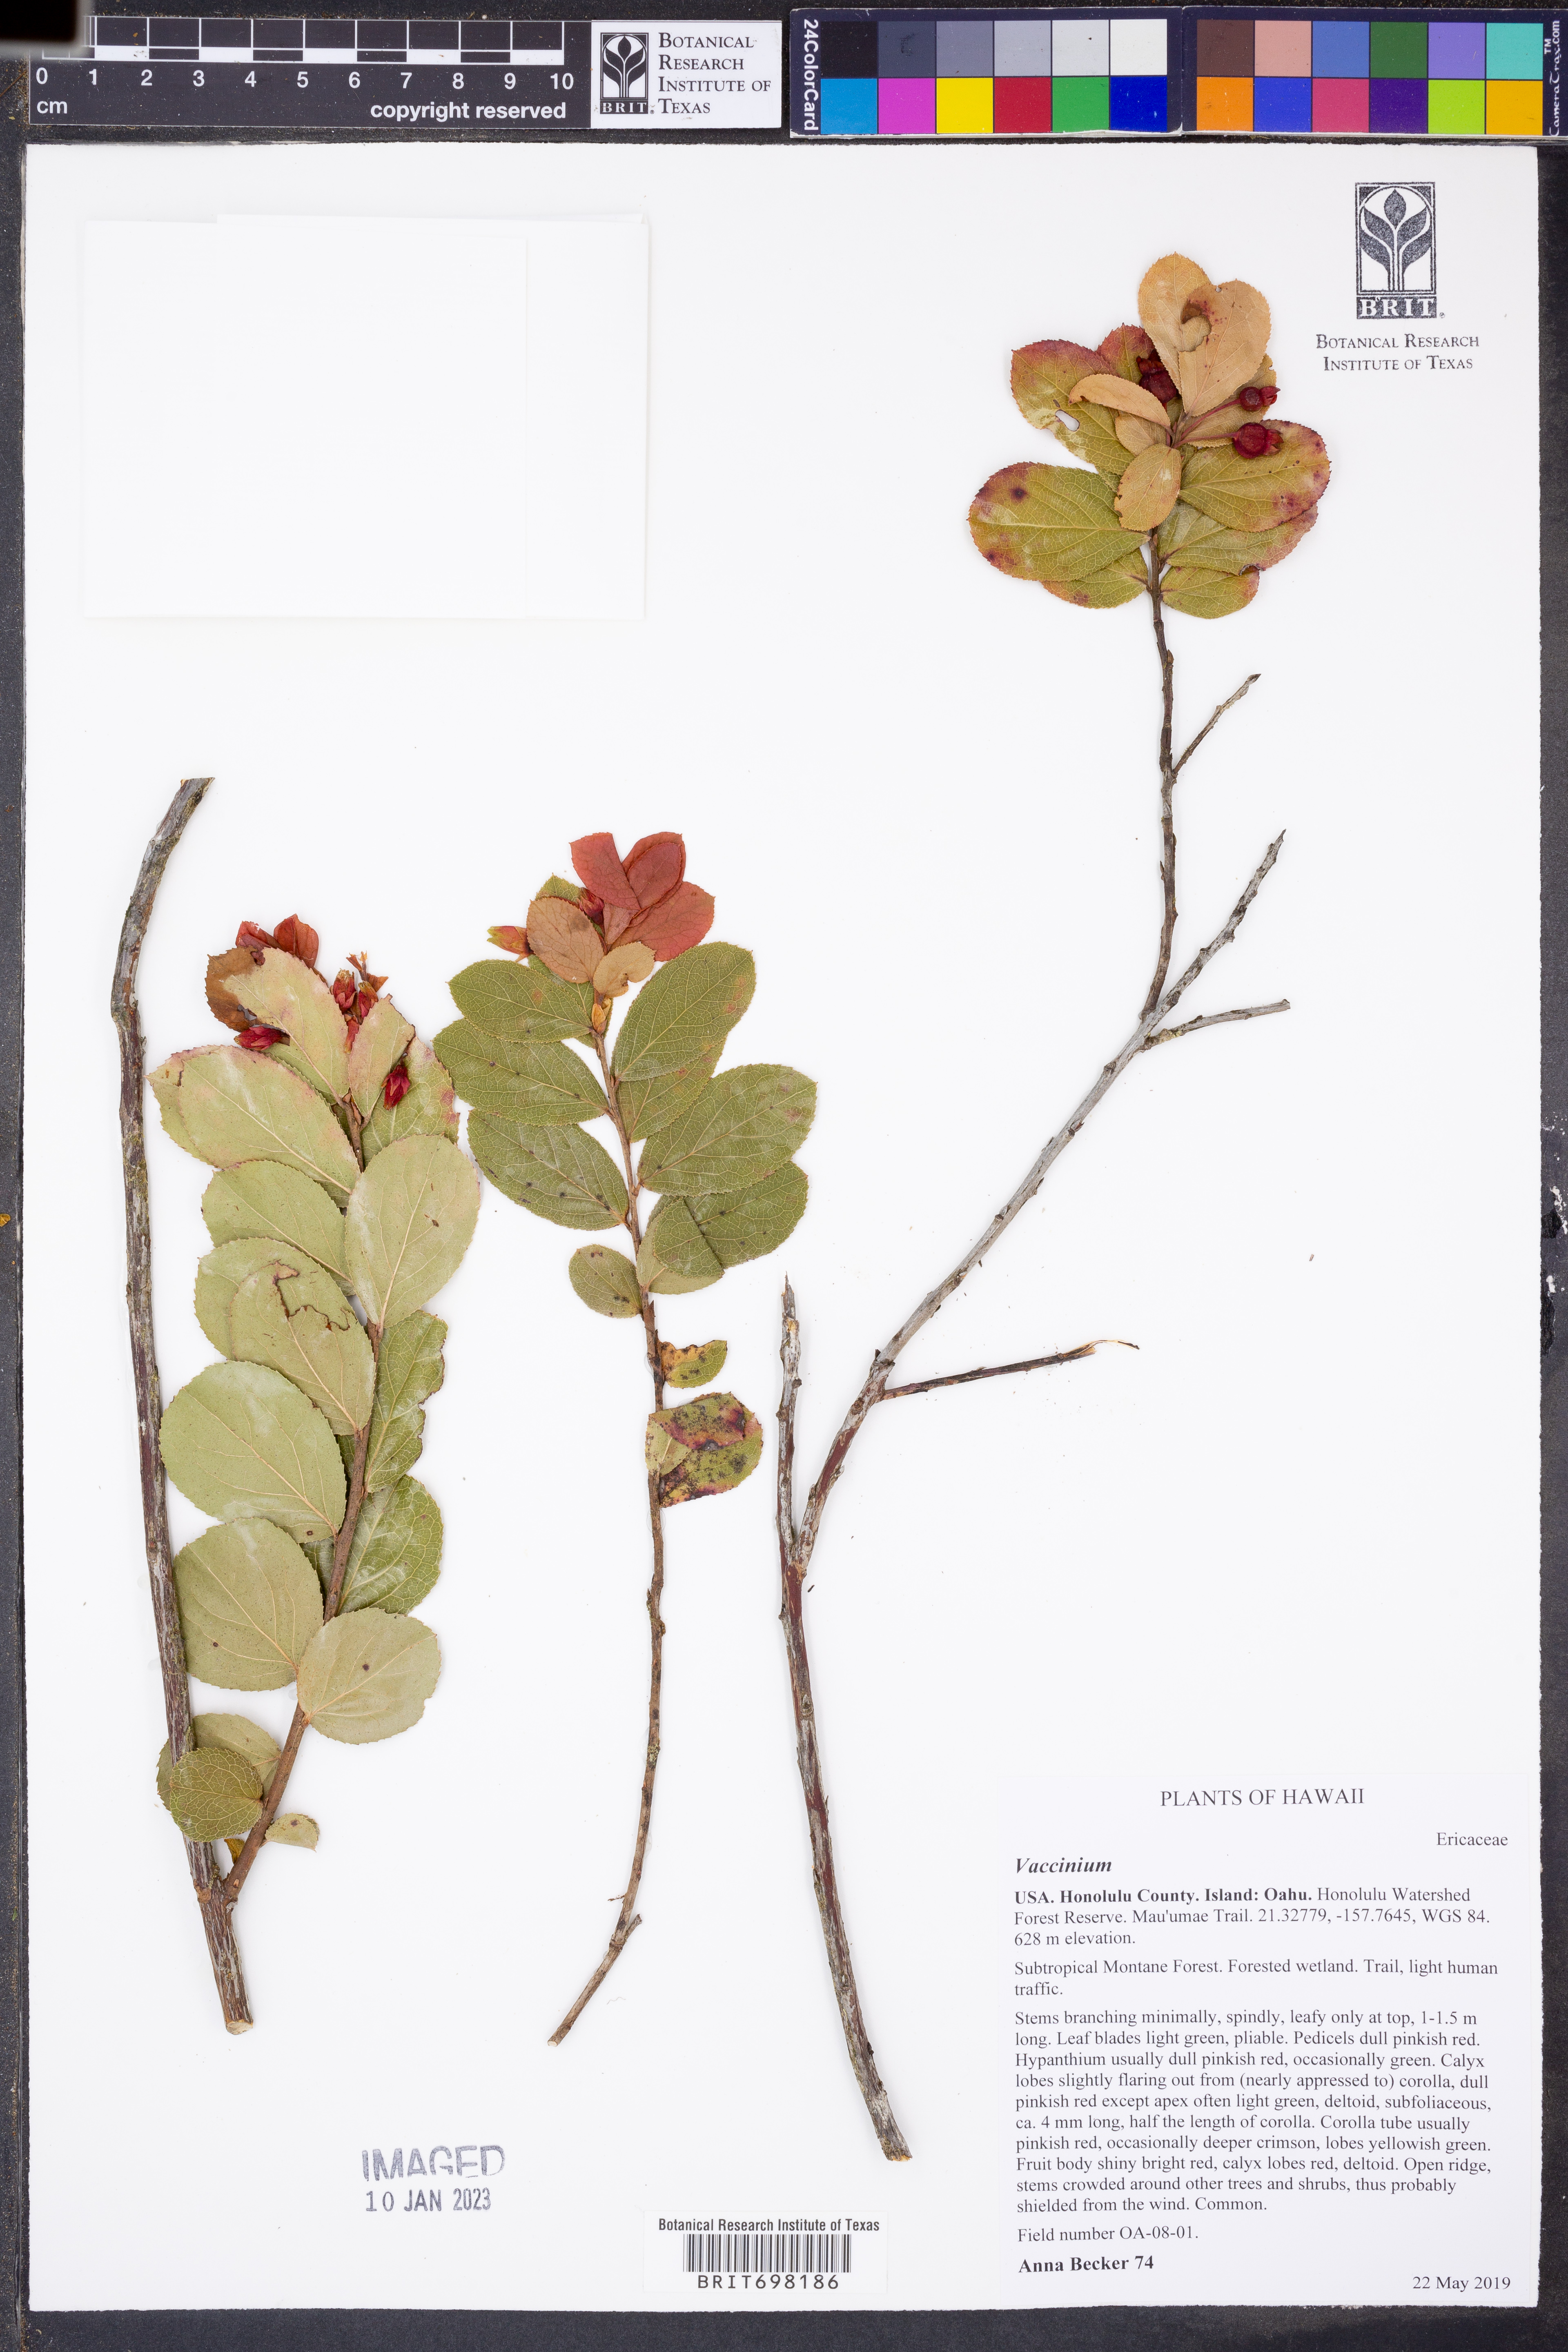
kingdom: Plantae
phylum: Tracheophyta
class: Magnoliopsida
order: Ericales
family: Ericaceae
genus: Vaccinium
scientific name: Vaccinium
